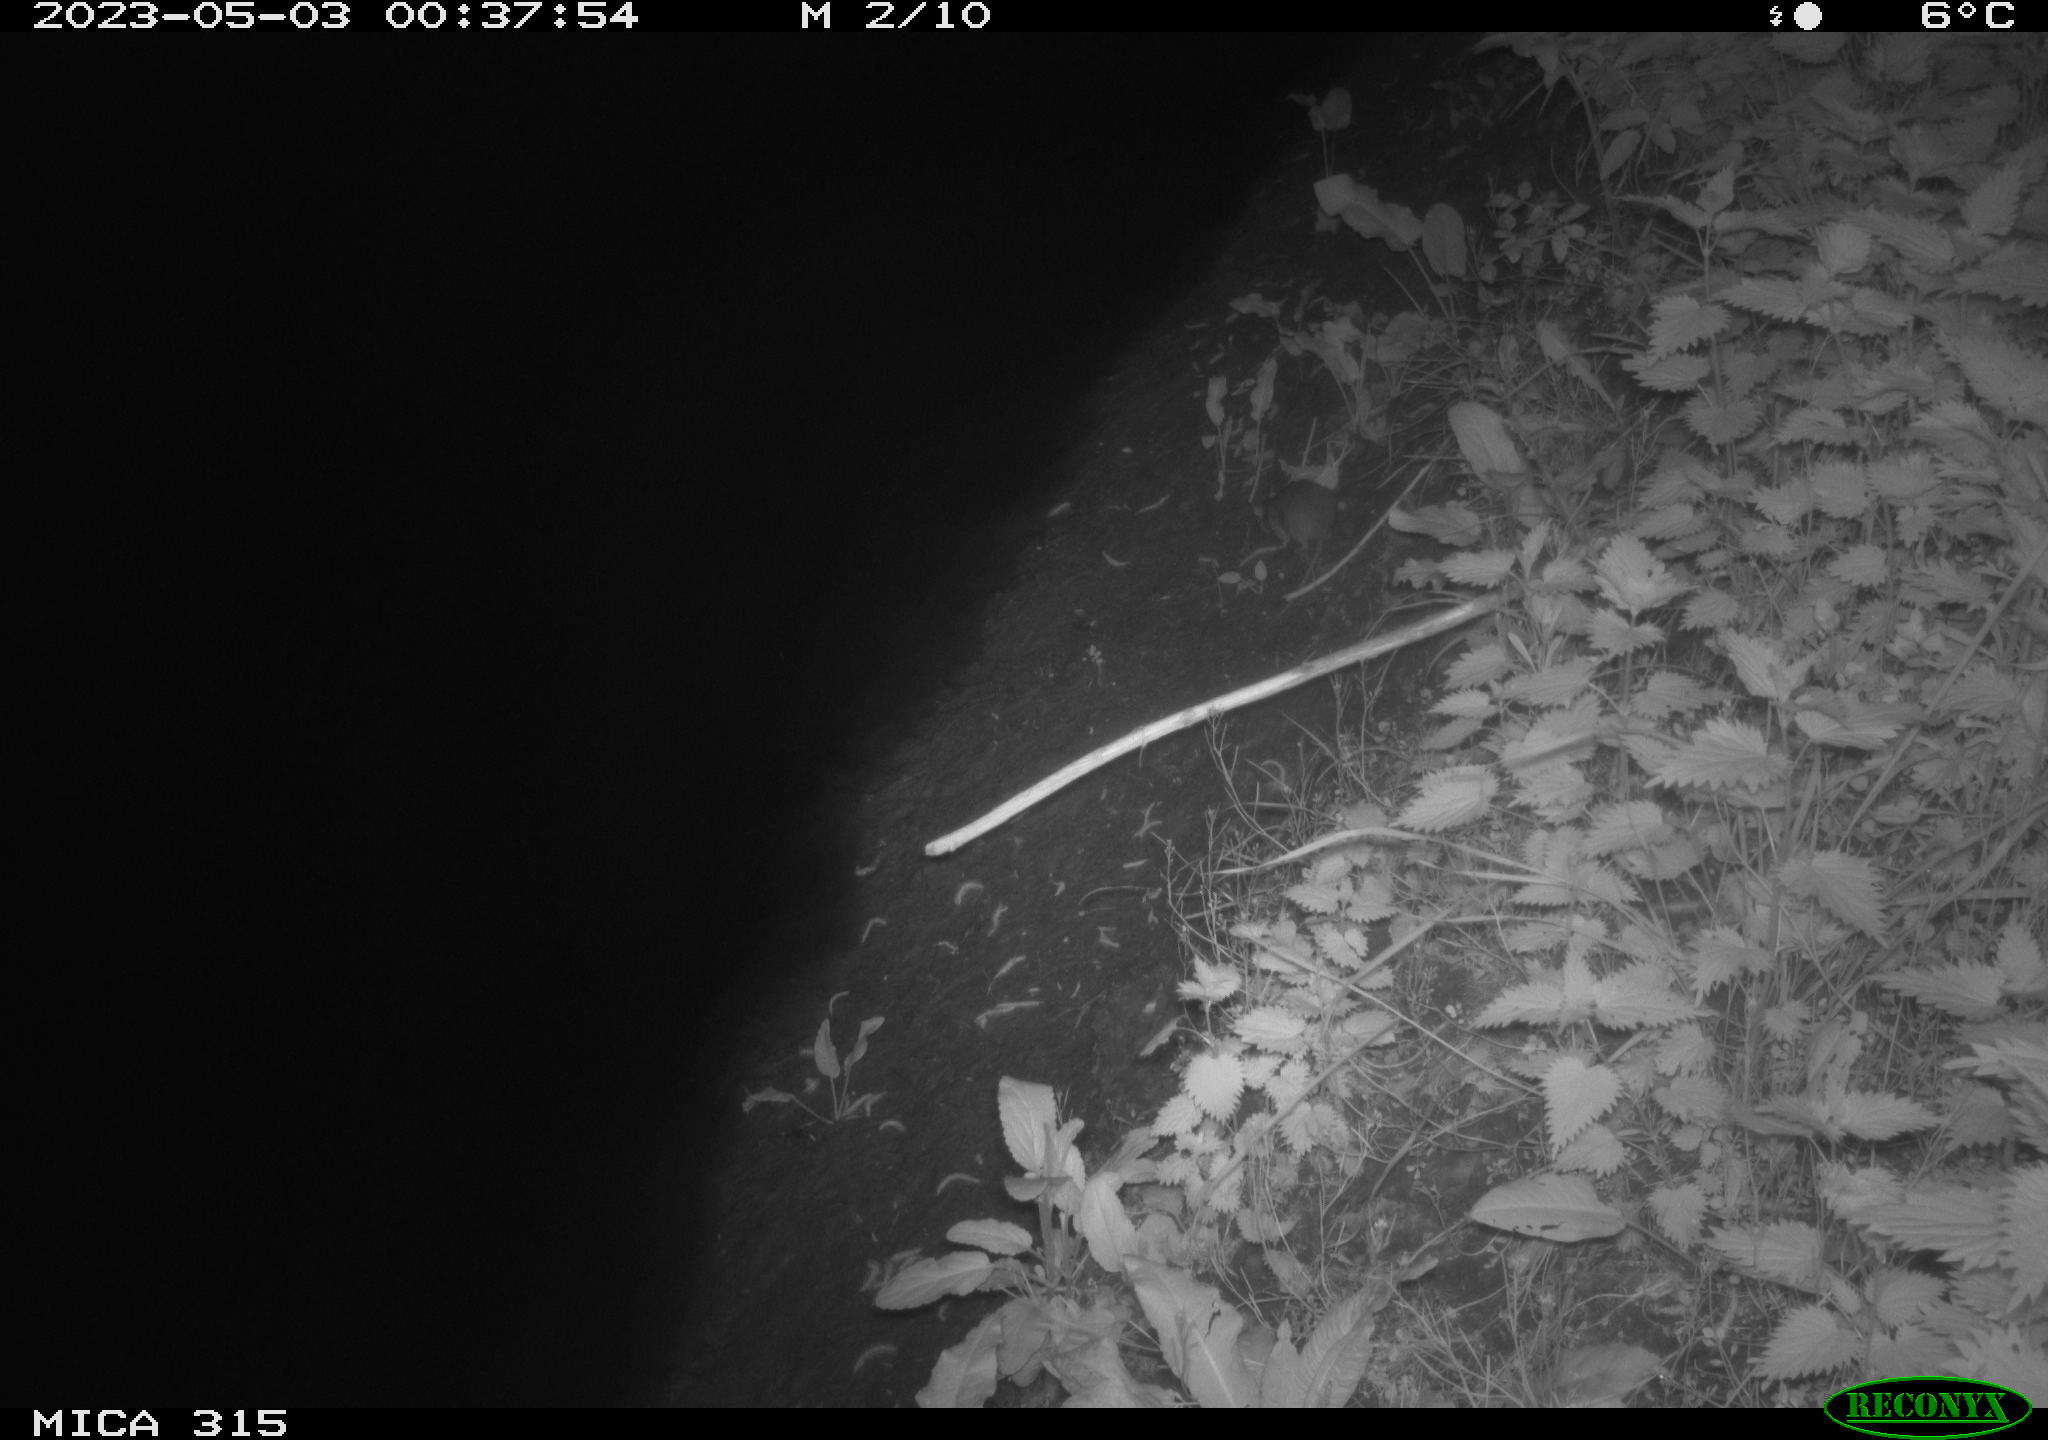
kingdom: Animalia
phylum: Chordata
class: Mammalia
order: Rodentia
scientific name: Rodentia
